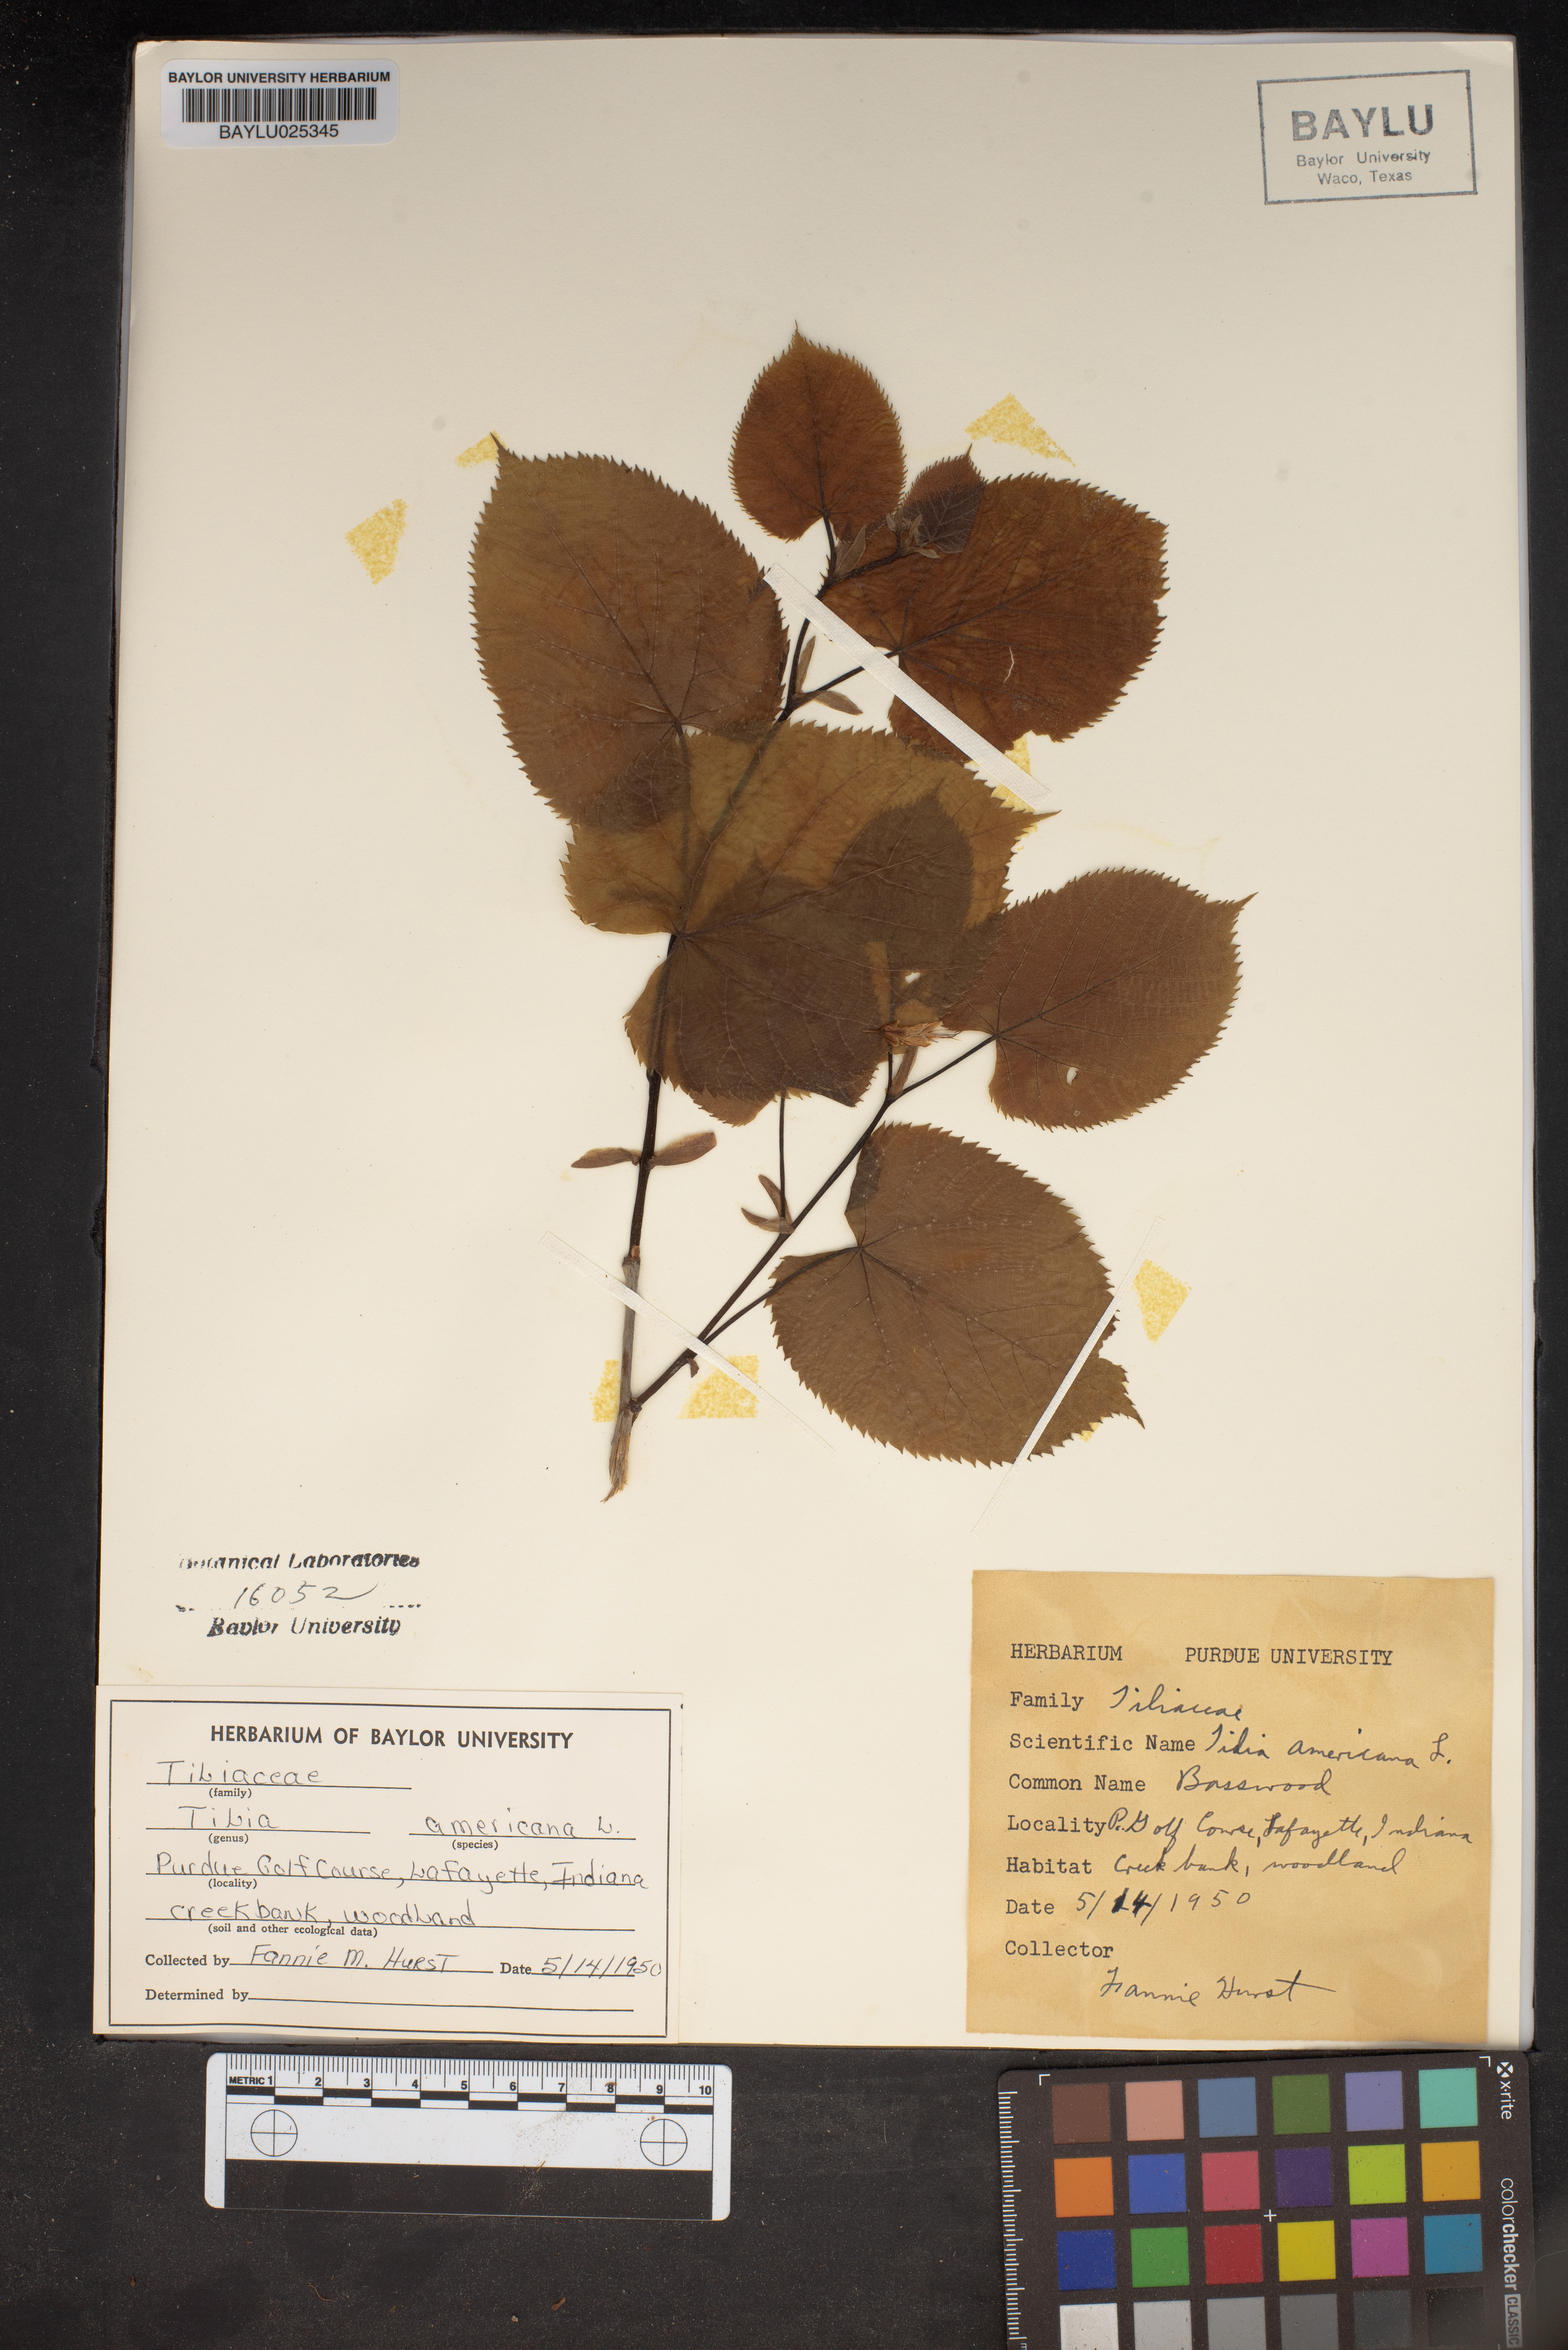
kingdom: Plantae
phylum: Tracheophyta
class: Magnoliopsida
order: Malvales
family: Malvaceae
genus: Tilia
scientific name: Tilia americana
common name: Basswood
